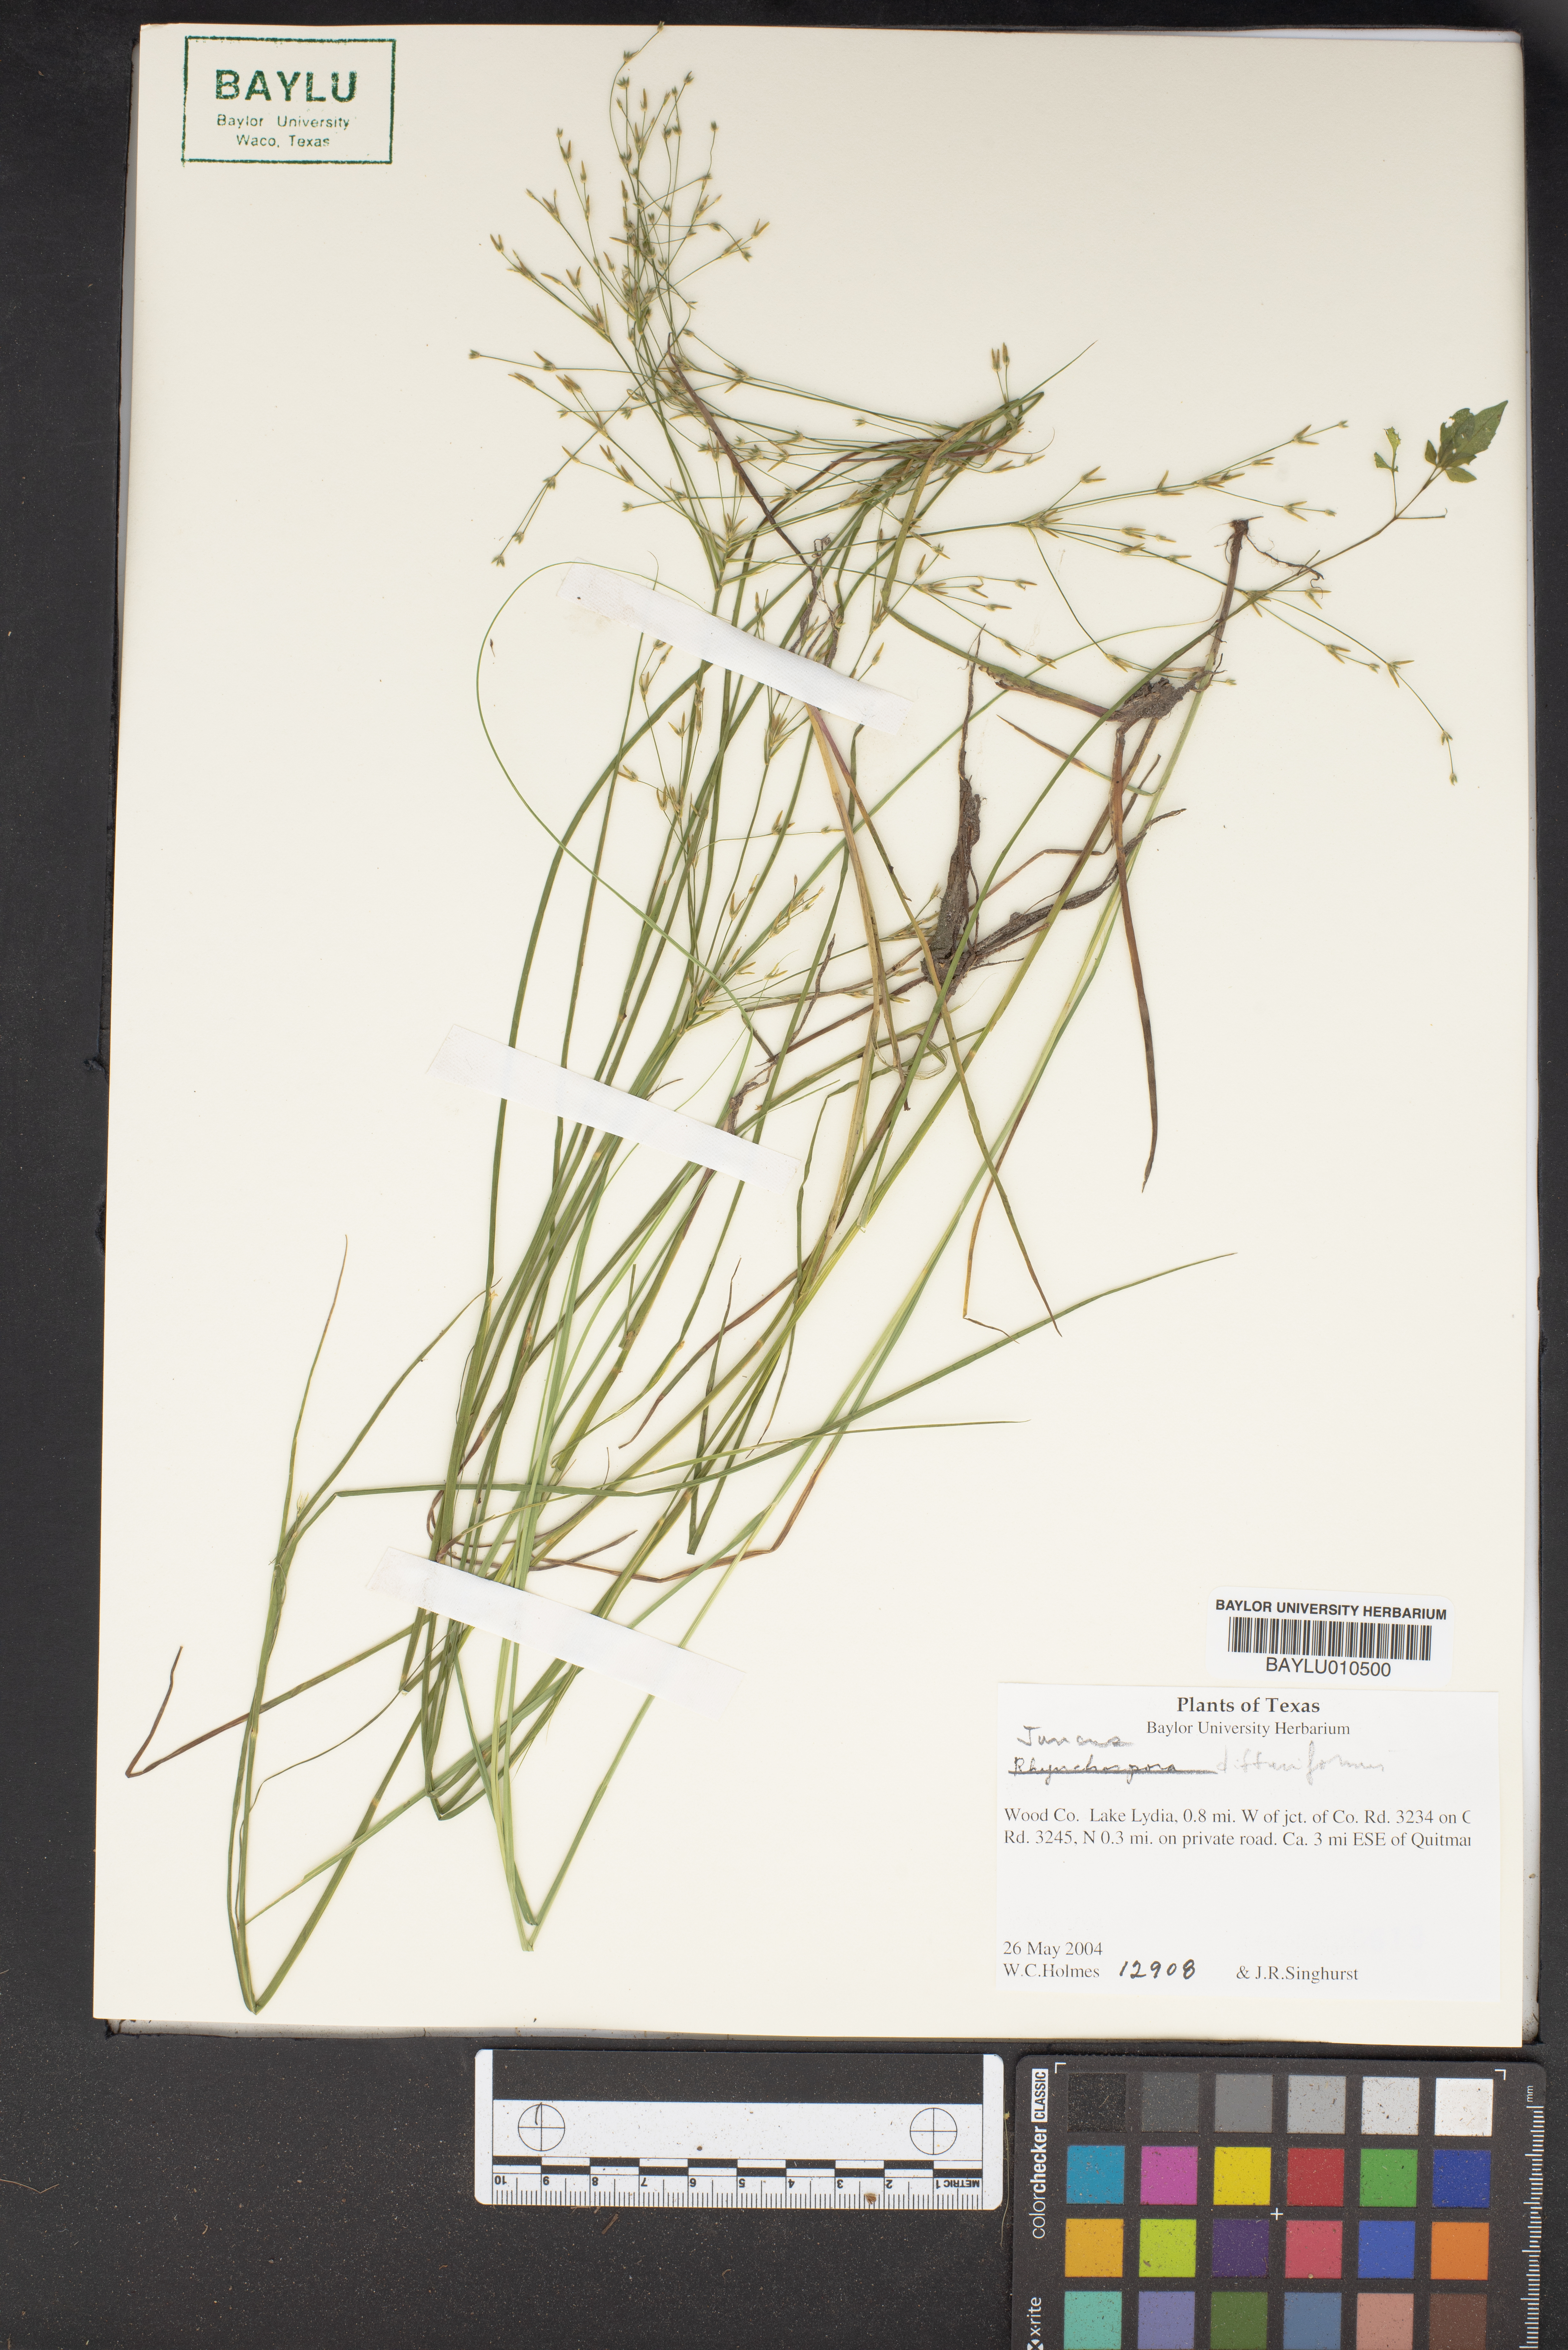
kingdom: Plantae
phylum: Tracheophyta
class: Liliopsida
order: Poales
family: Juncaceae
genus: Juncus
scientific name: Juncus diffusissimus
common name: Slimpod rush
